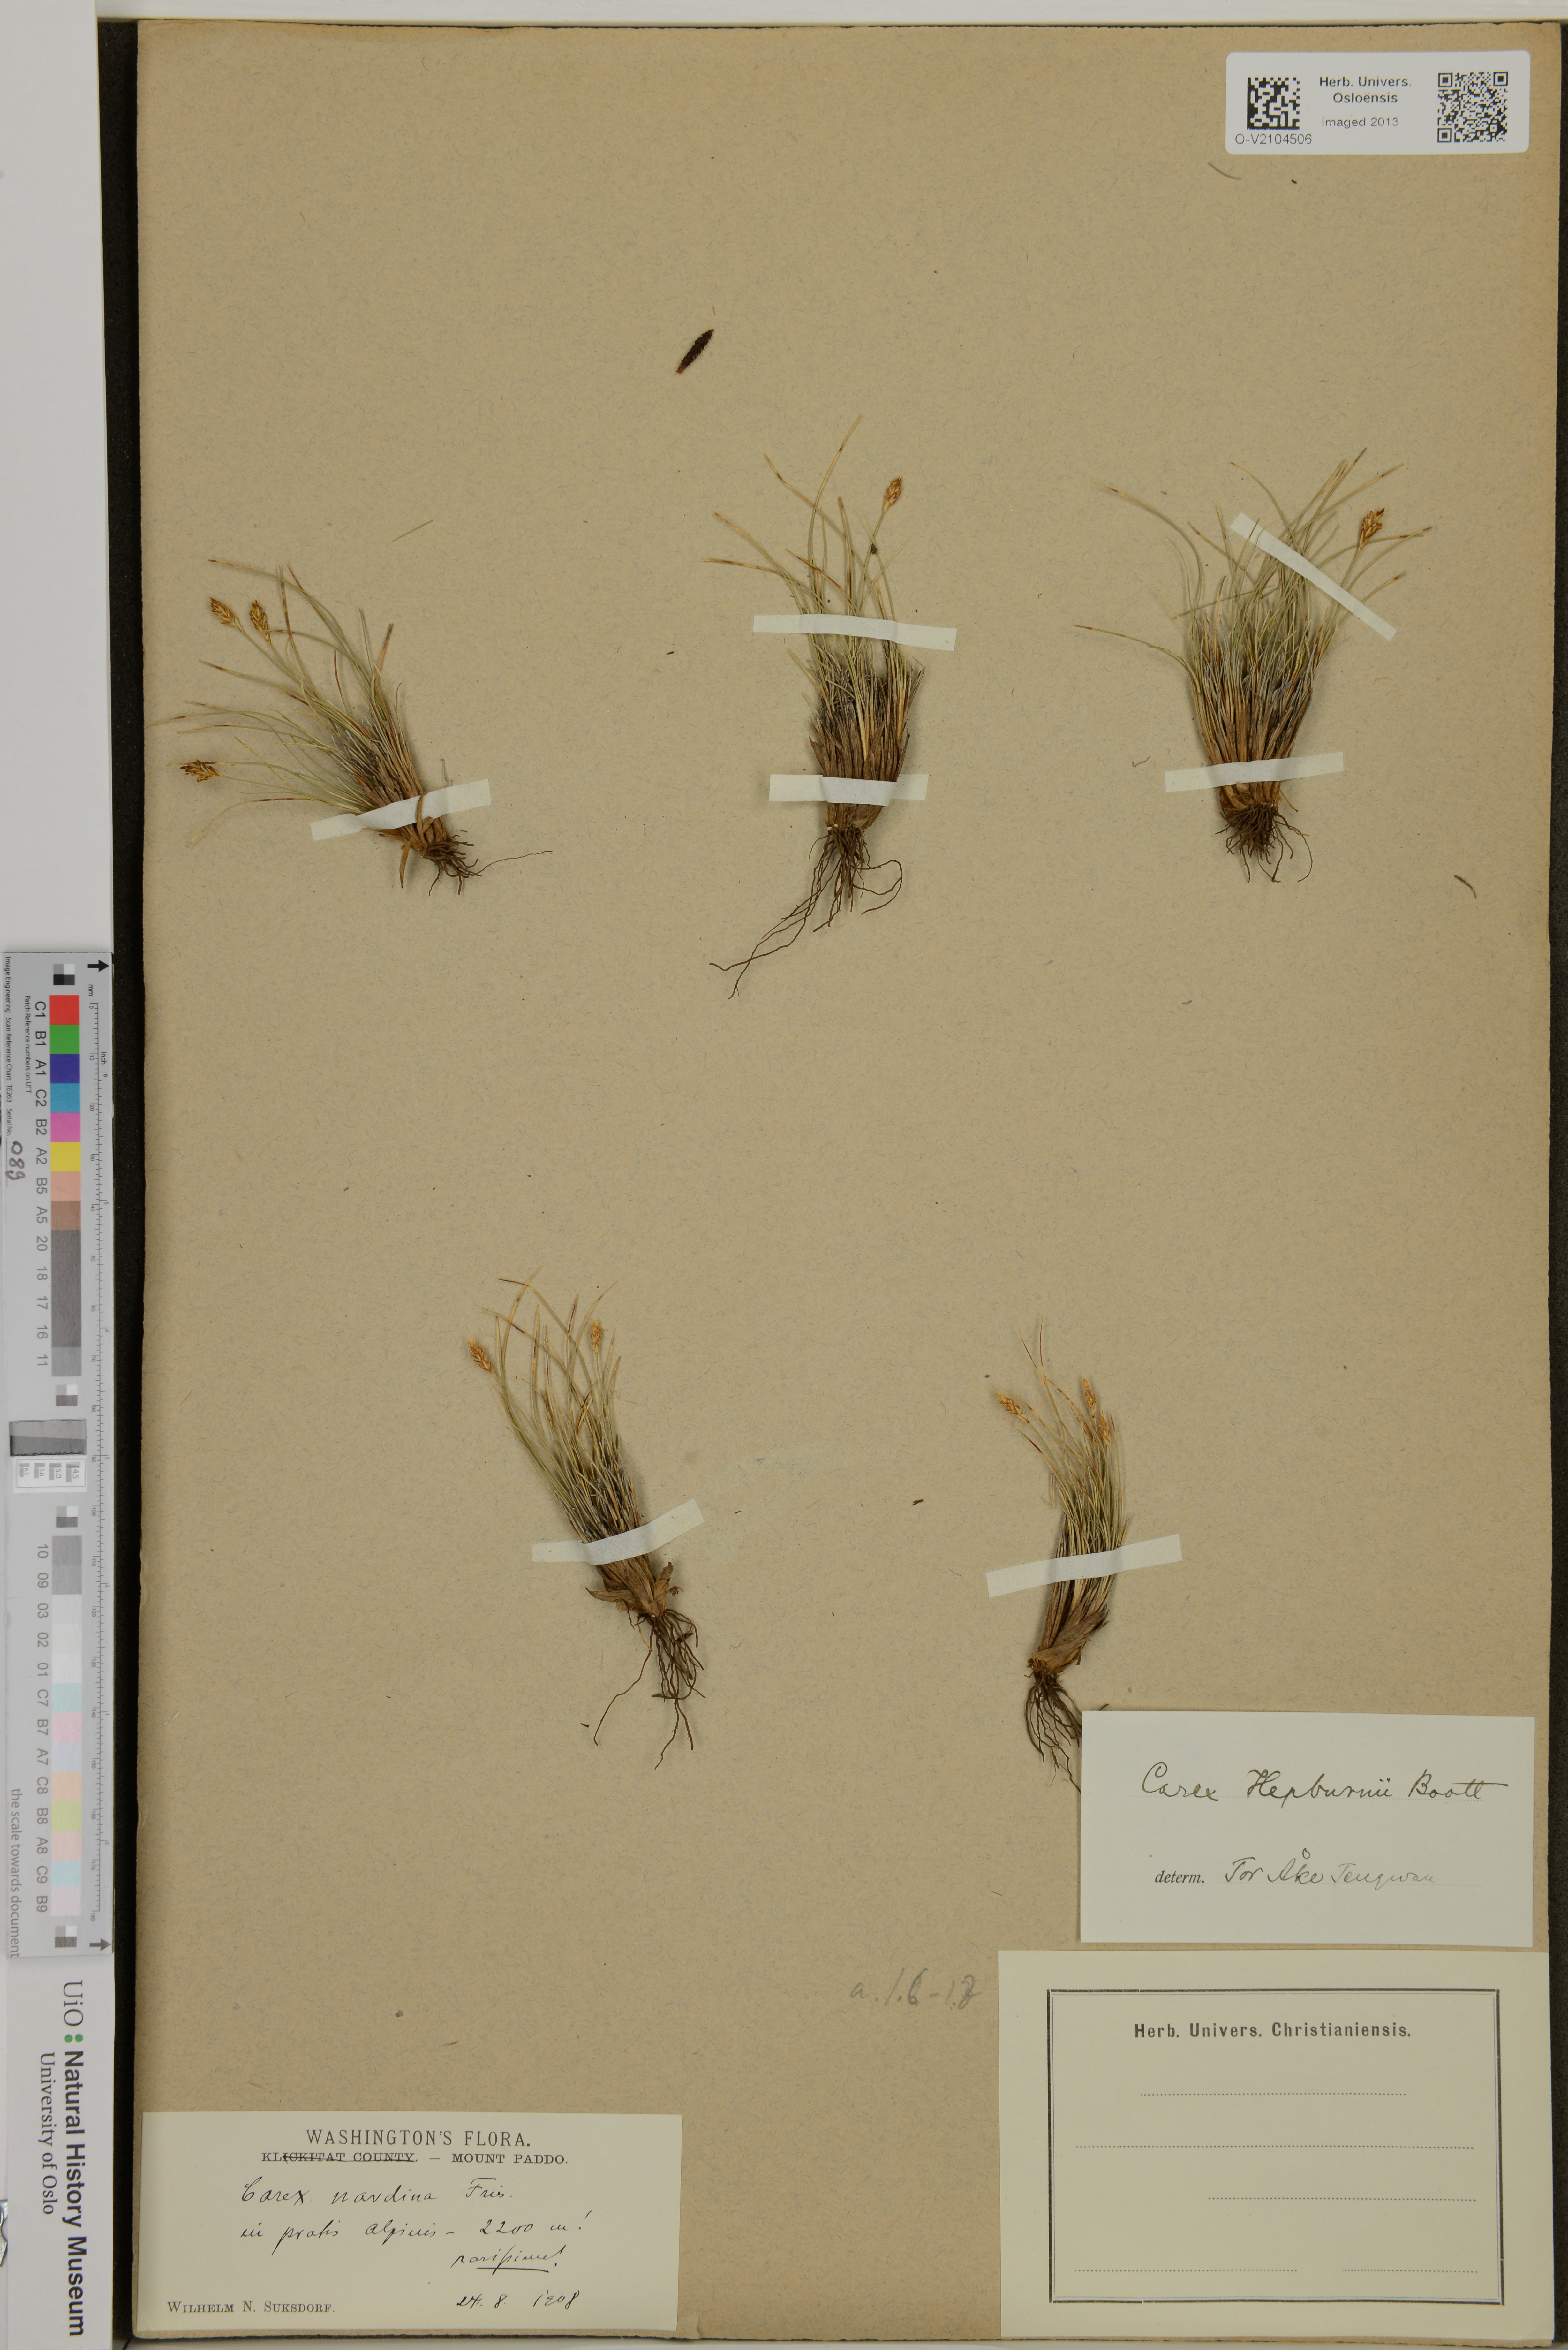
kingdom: Plantae
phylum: Tracheophyta
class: Liliopsida
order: Poales
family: Cyperaceae
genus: Carex
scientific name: Carex nardina
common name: Nard sedge
